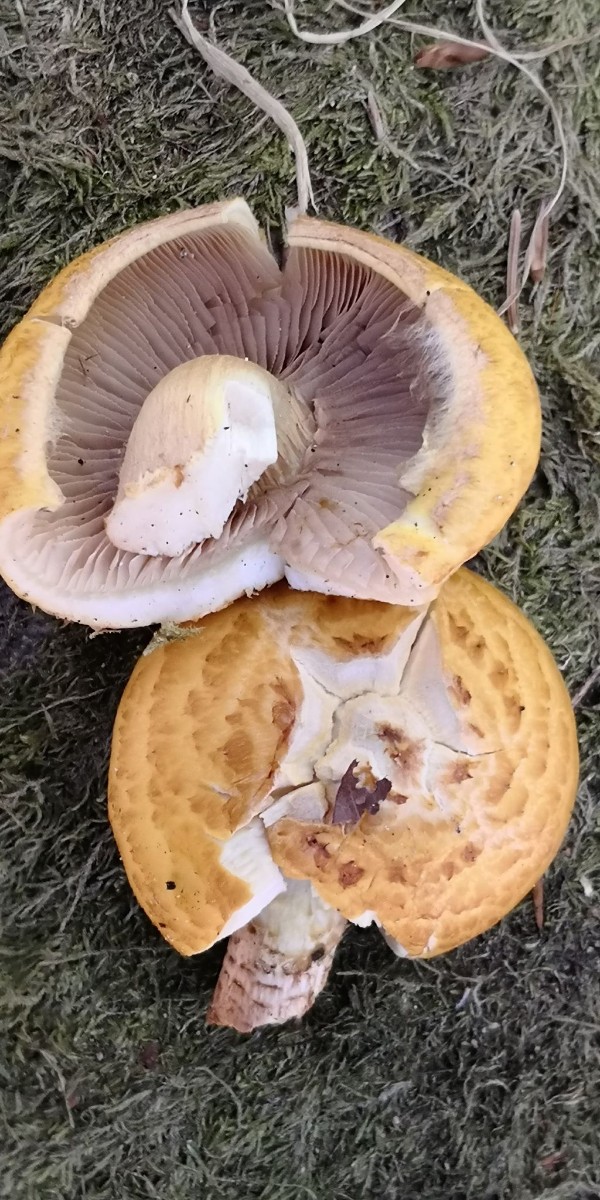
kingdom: Fungi
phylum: Basidiomycota
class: Agaricomycetes
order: Agaricales
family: Strophariaceae
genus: Pholiota
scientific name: Pholiota adiposa
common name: højtsiddende skælhat
